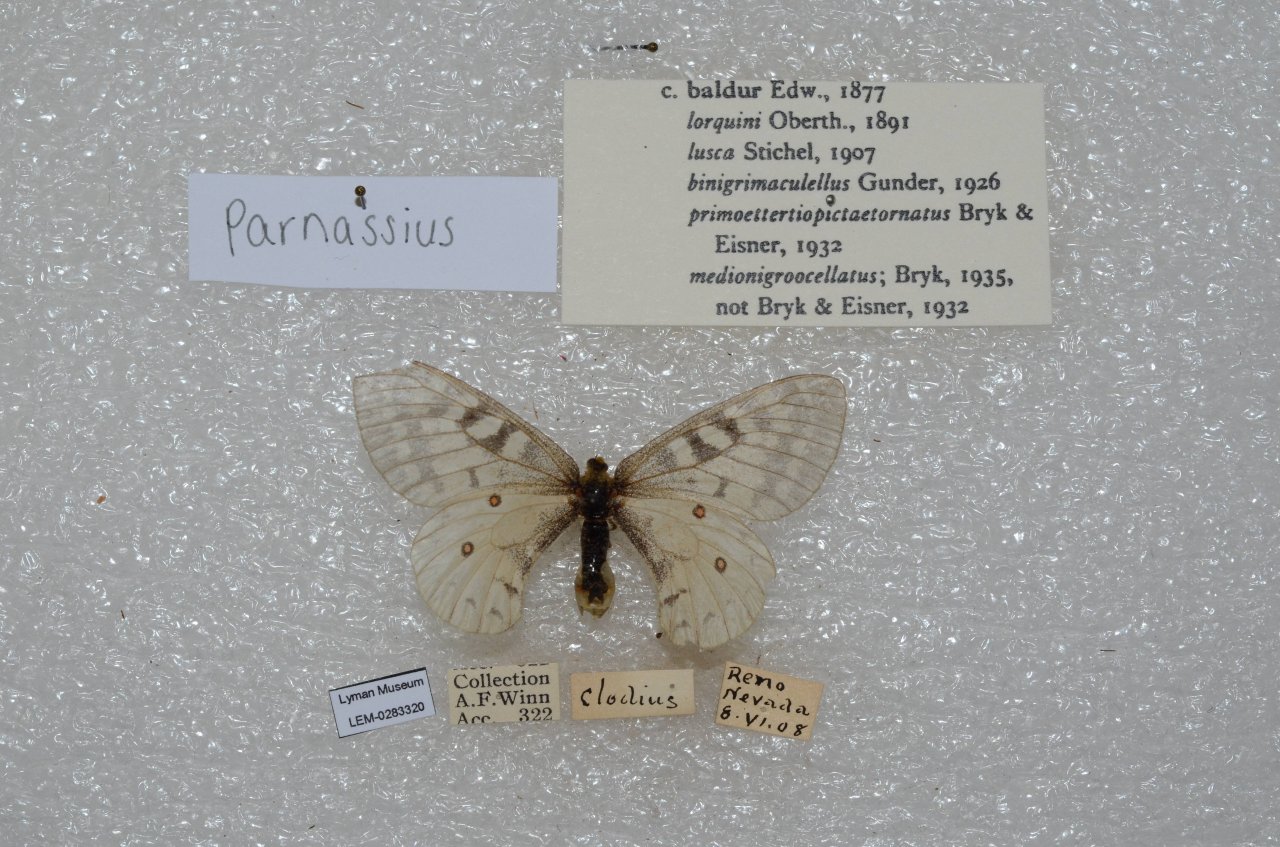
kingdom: Animalia
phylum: Arthropoda
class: Insecta
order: Lepidoptera
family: Papilionidae
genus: Parnassius
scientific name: Parnassius clodius
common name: Clodius Parnassian
